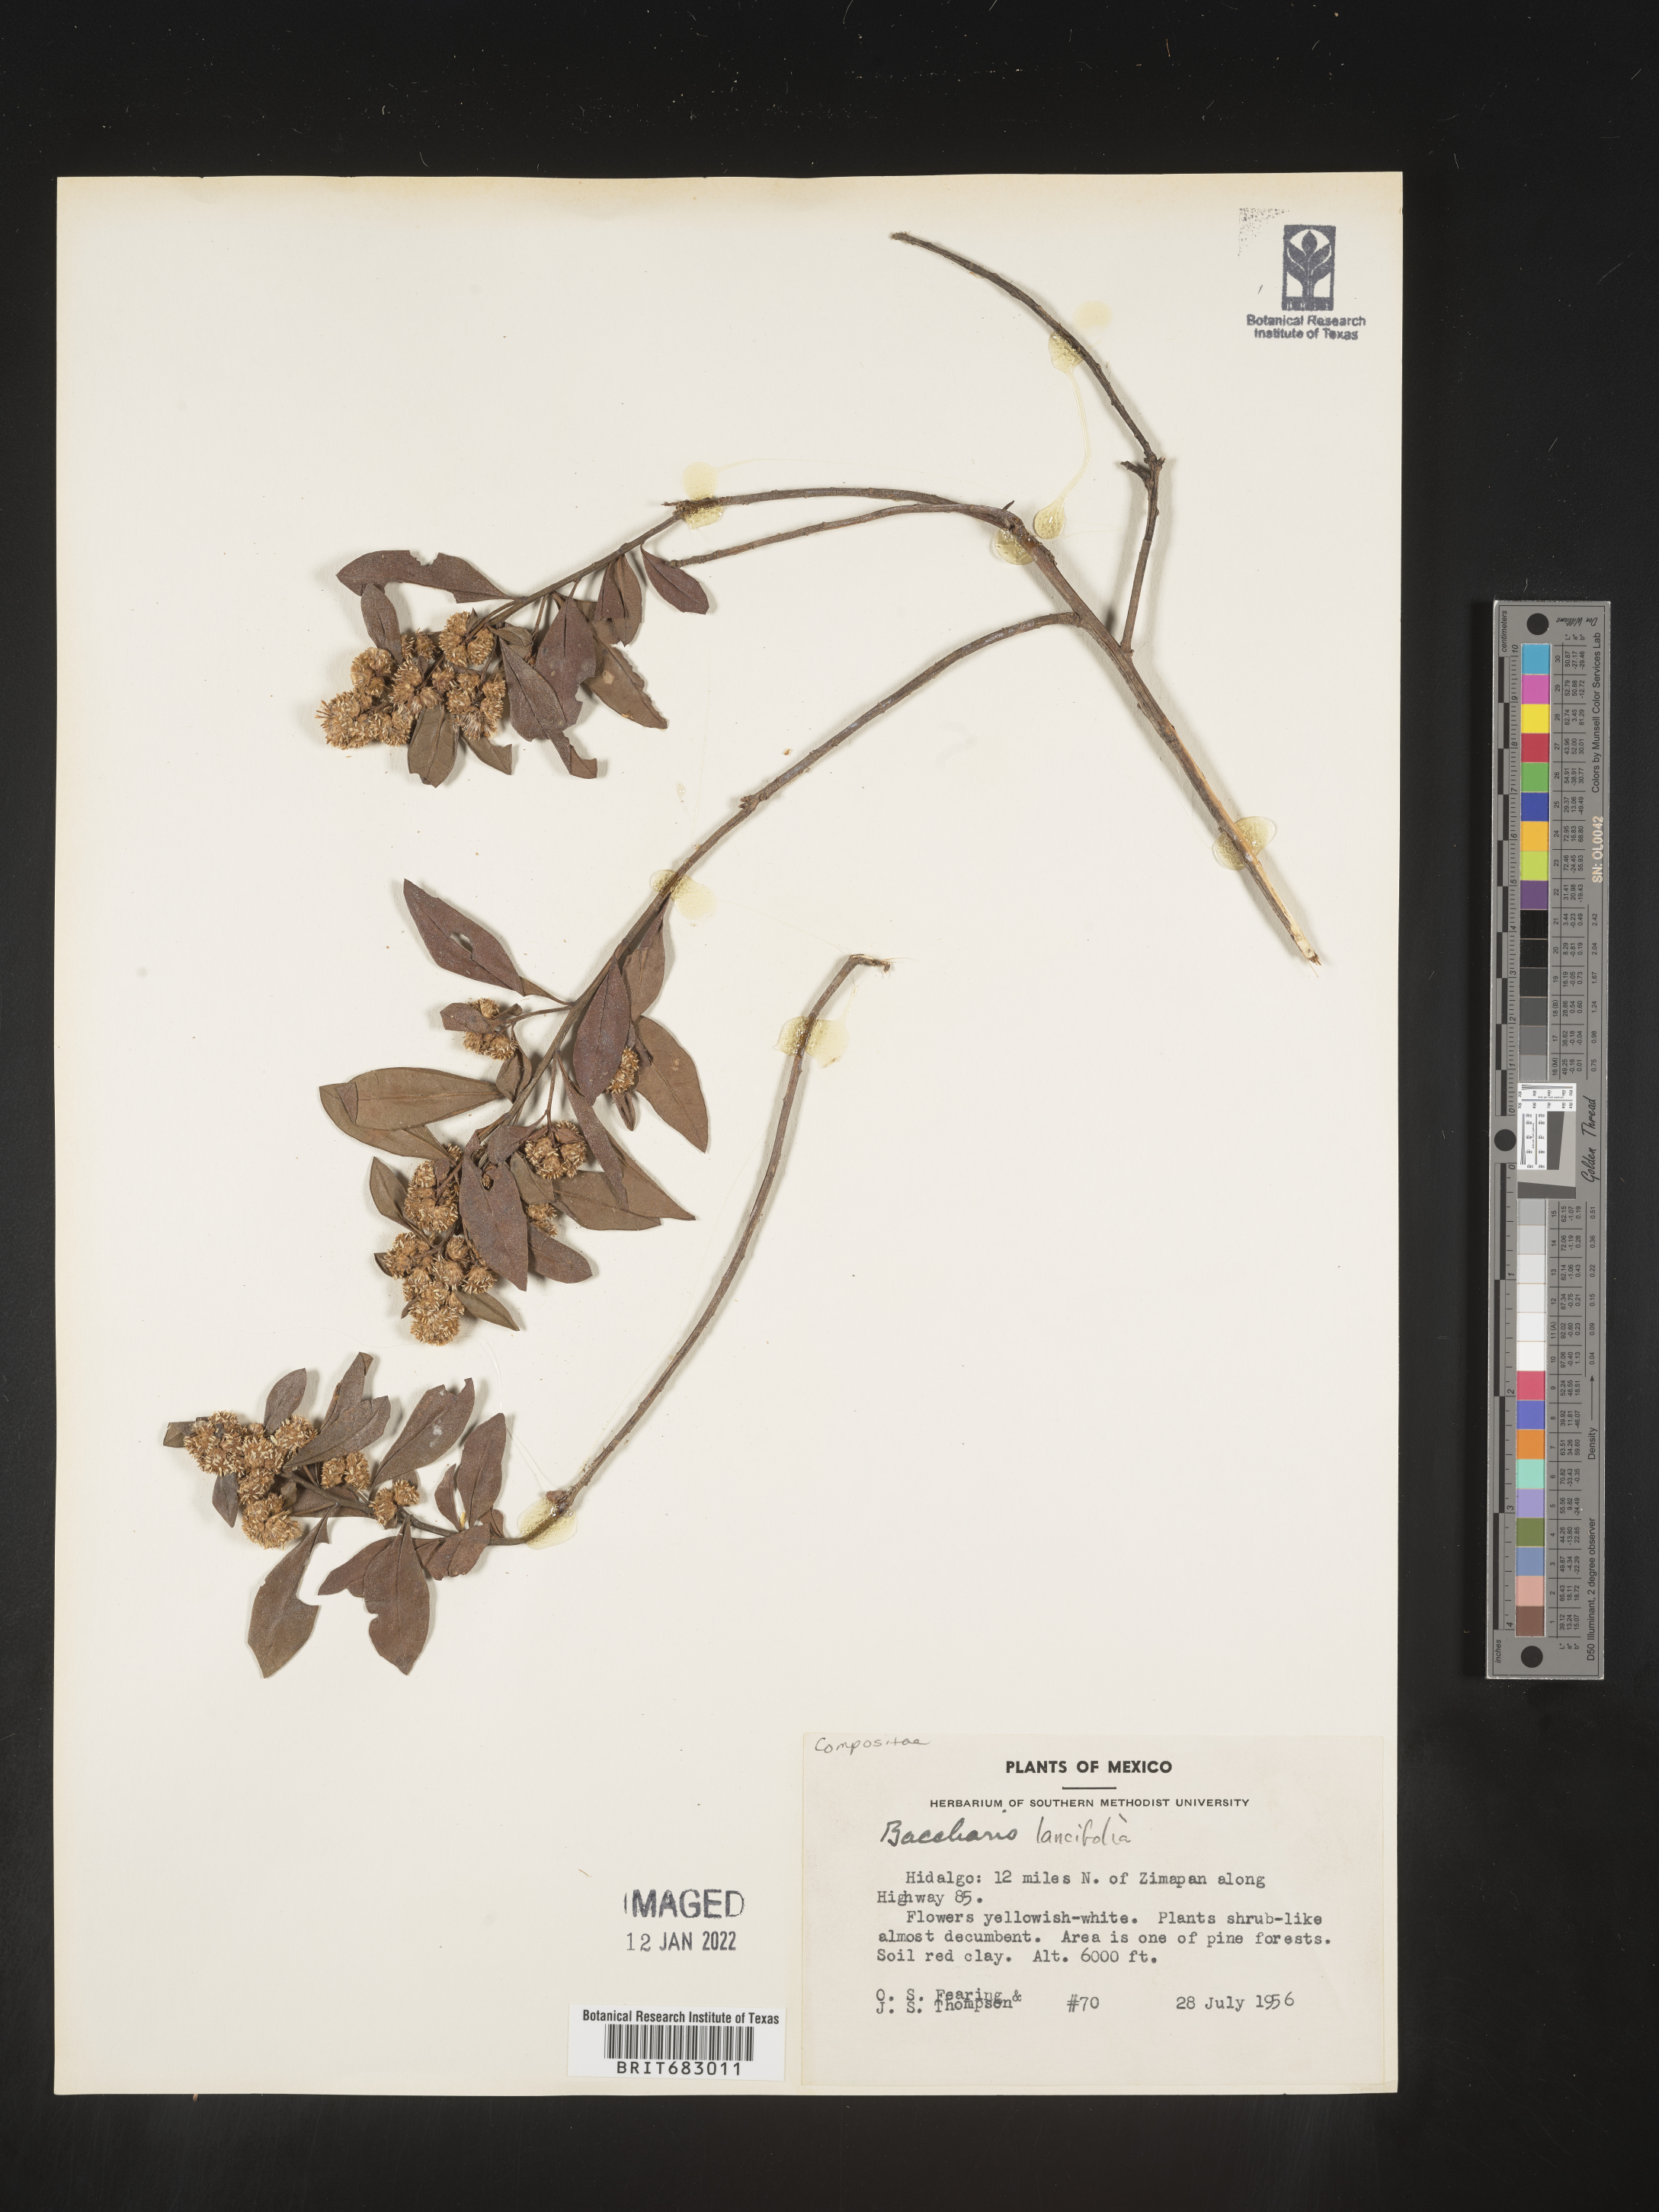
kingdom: Plantae
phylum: Tracheophyta
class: Magnoliopsida
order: Asterales
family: Asteraceae
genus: Baccharis
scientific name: Baccharis lancifolia
